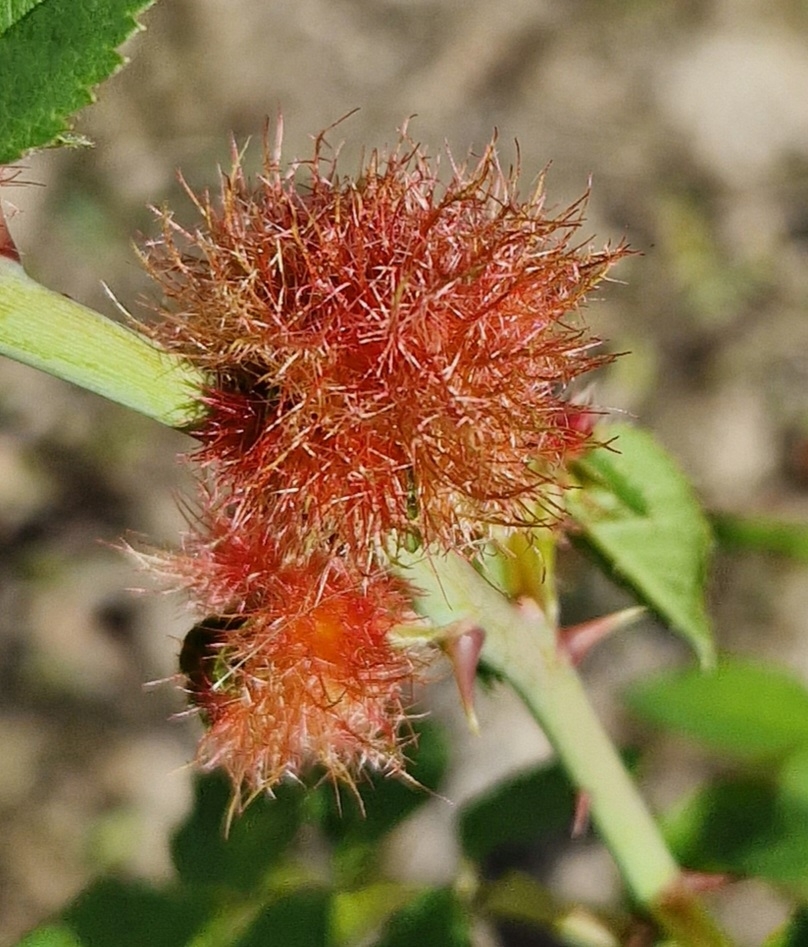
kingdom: Animalia
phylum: Arthropoda
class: Insecta
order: Hymenoptera
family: Cynipidae
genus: Diplolepis
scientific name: Diplolepis rosae
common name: Bedeguargalhveps
